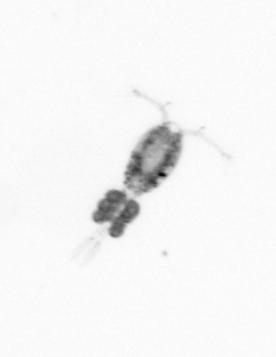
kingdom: Animalia
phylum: Arthropoda
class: Copepoda
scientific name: Copepoda
